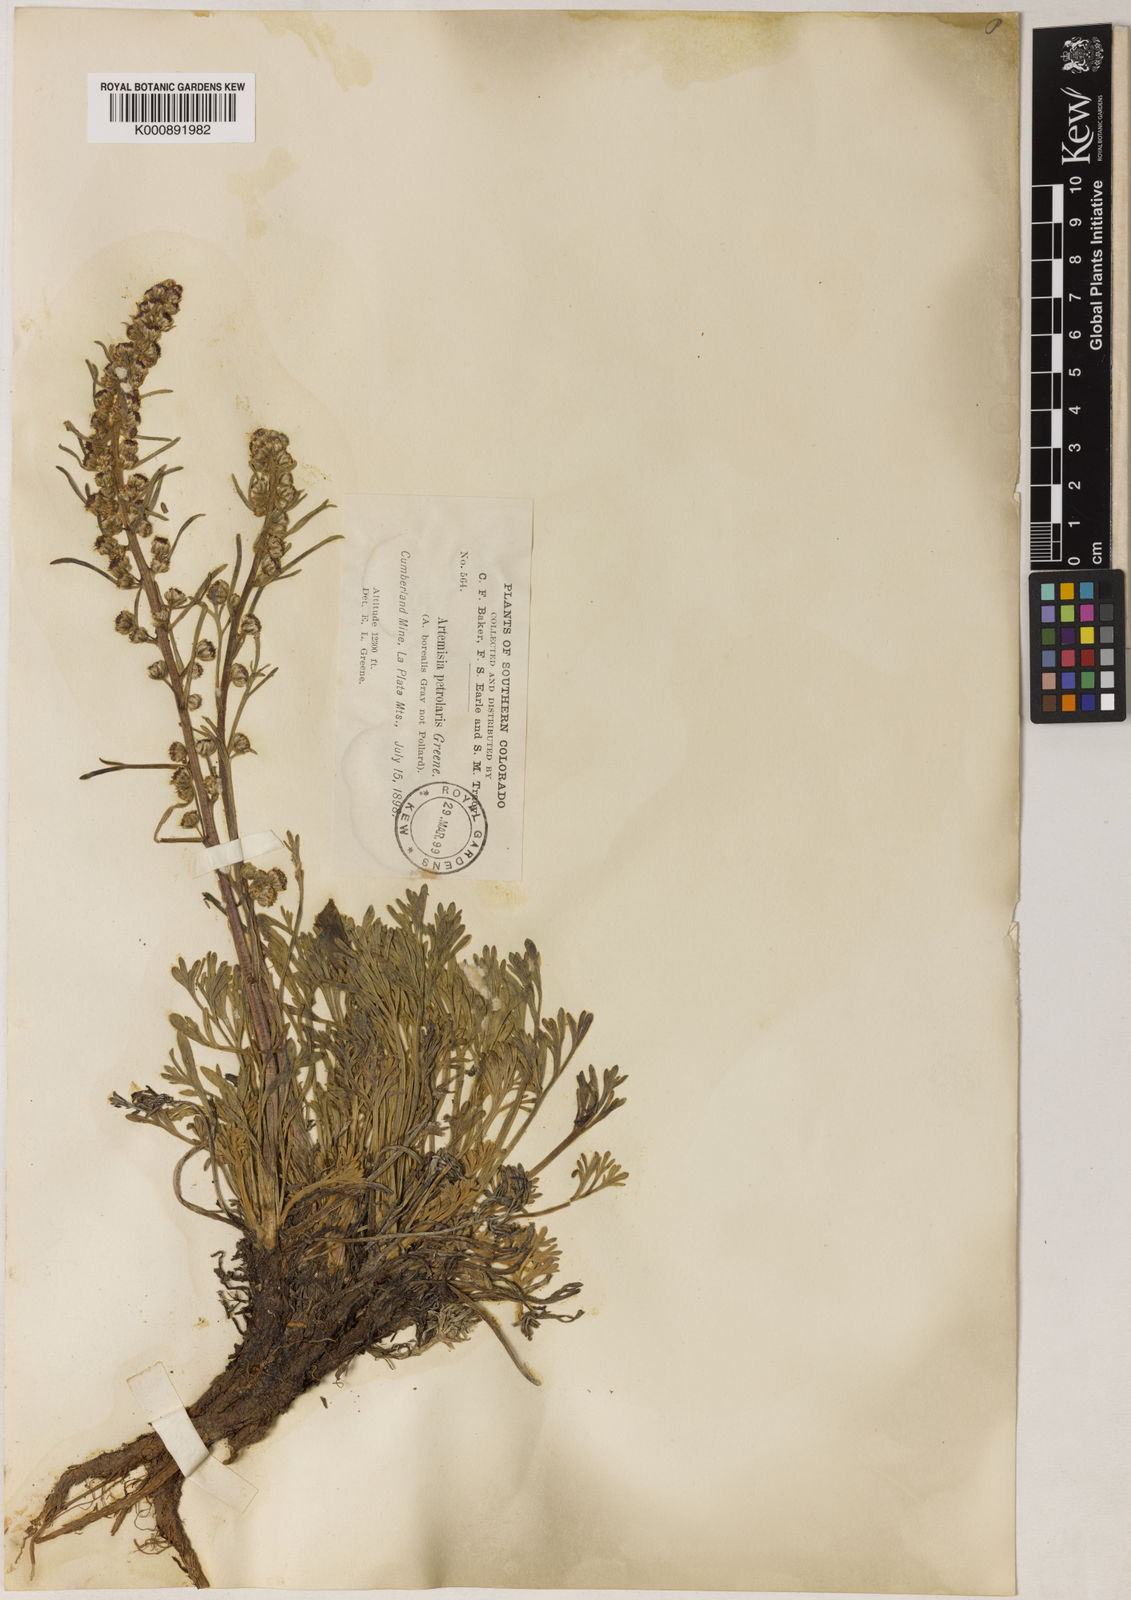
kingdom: Plantae
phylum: Tracheophyta
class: Magnoliopsida
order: Asterales
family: Asteraceae
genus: Artemisia
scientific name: Artemisia
